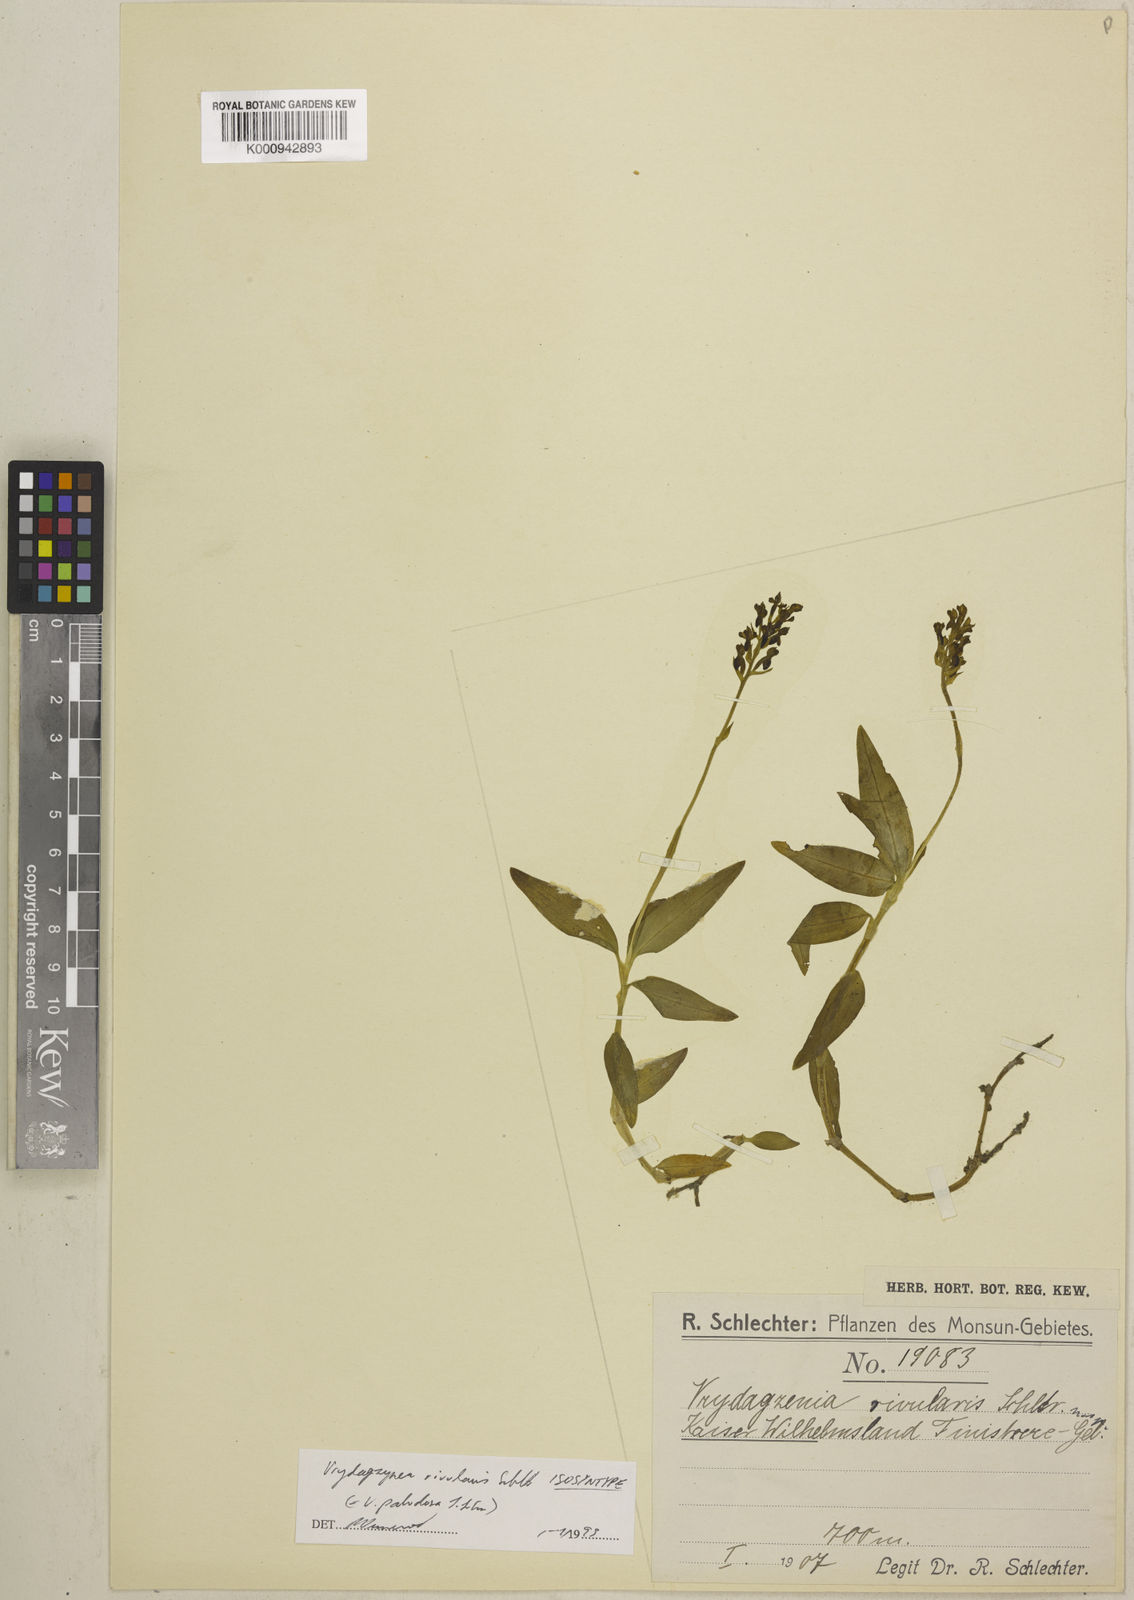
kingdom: Plantae
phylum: Tracheophyta
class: Liliopsida
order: Asparagales
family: Orchidaceae
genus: Vrydagzynea
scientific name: Vrydagzynea paludosa
